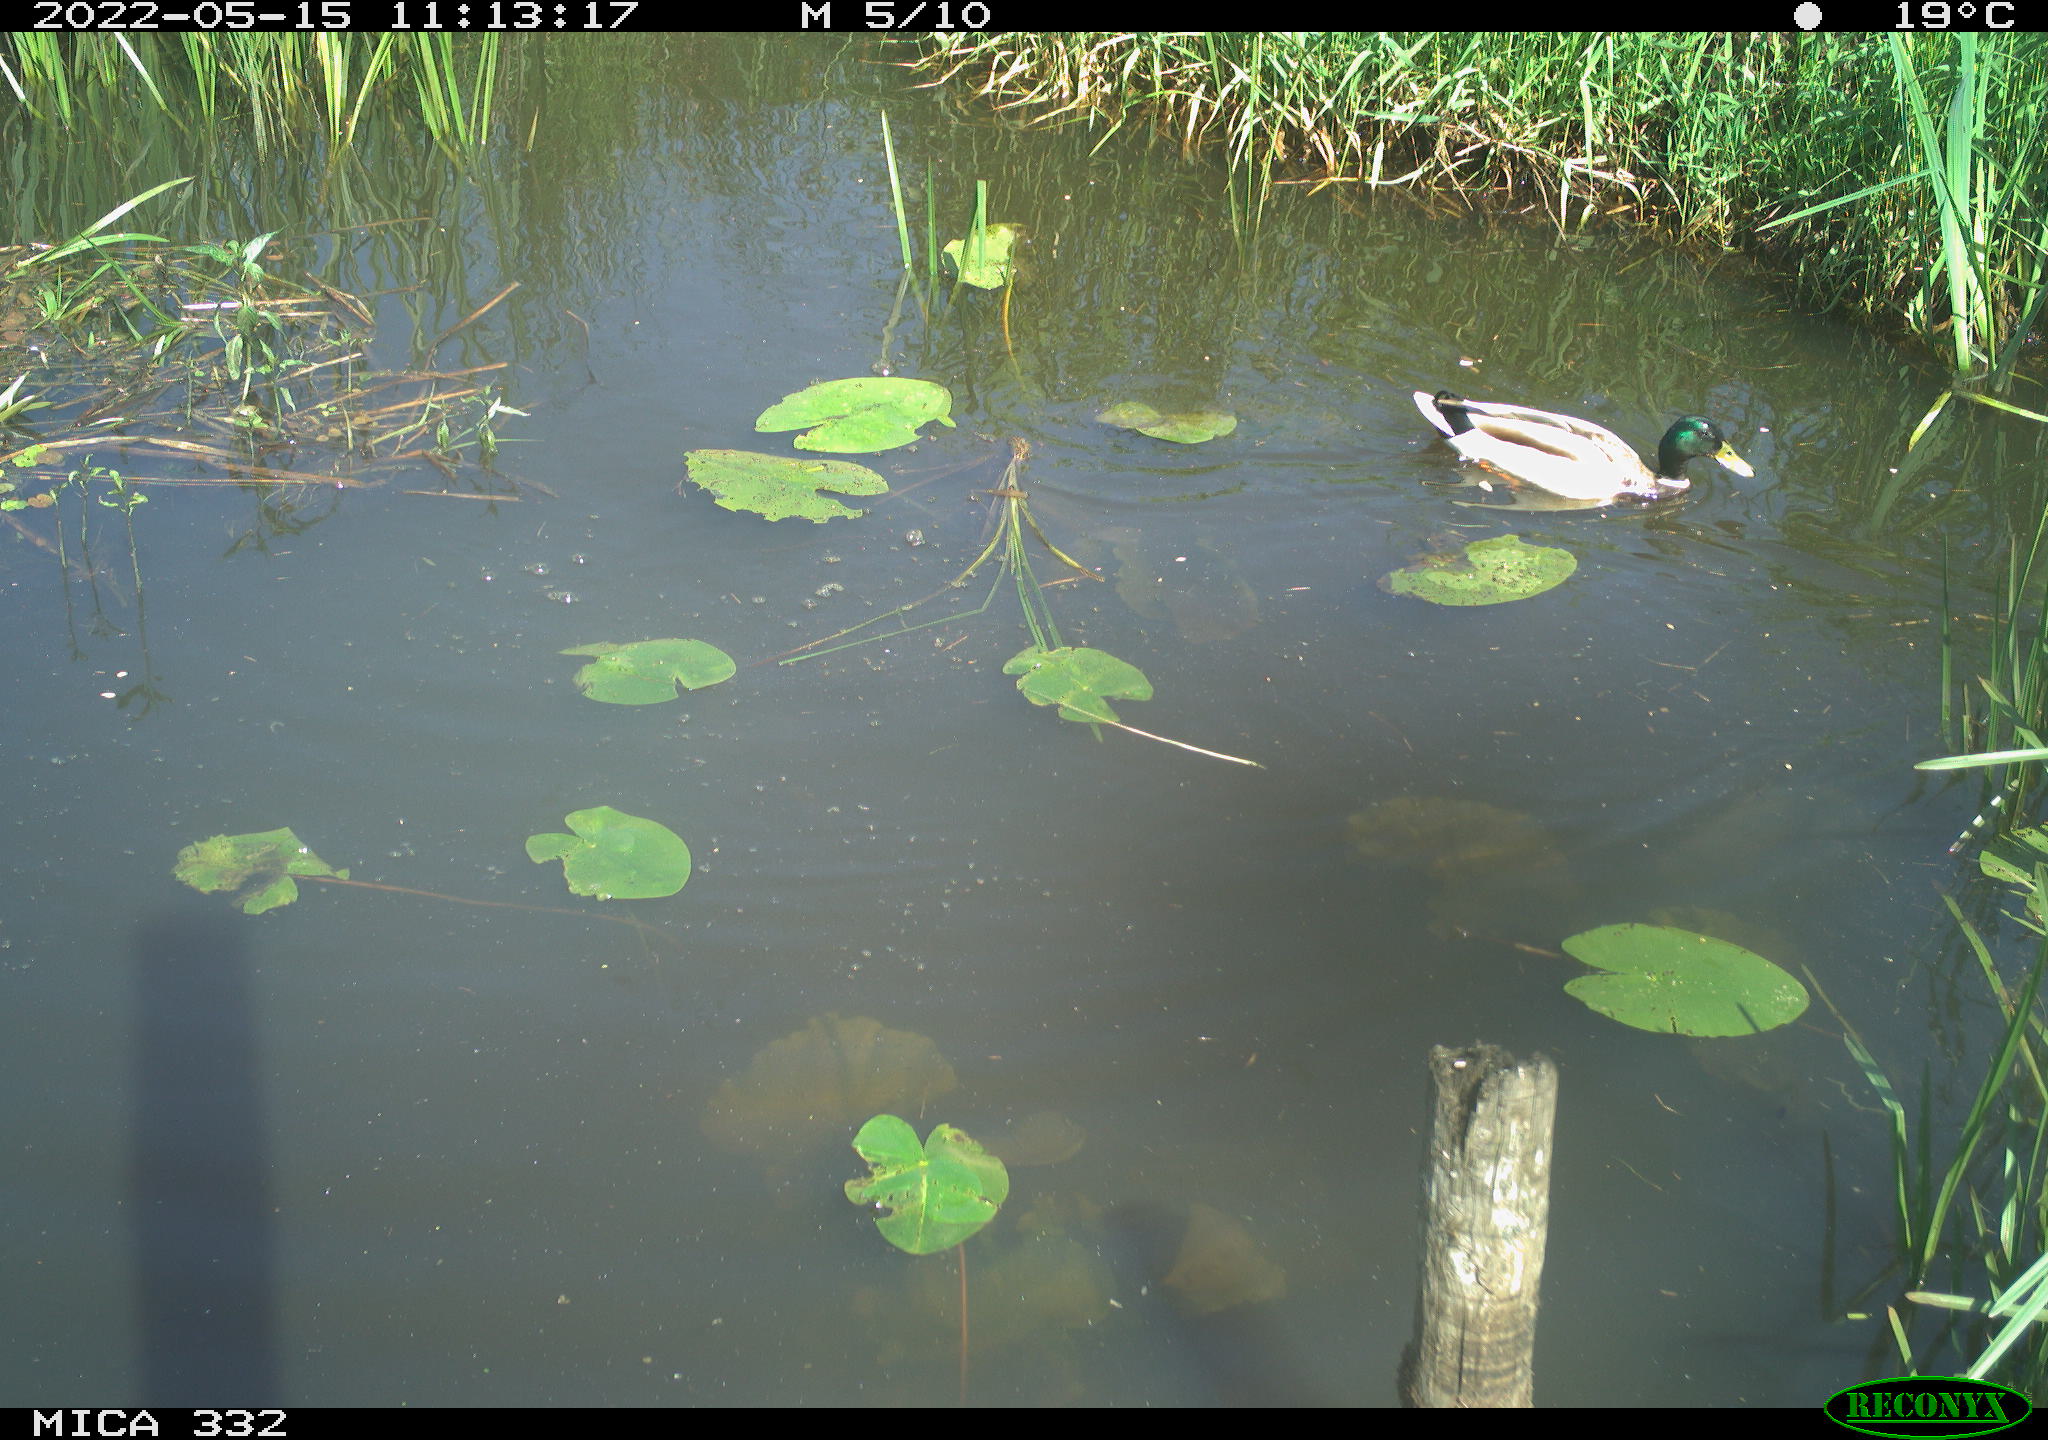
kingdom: Animalia
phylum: Chordata
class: Aves
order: Anseriformes
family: Anatidae
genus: Anas
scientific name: Anas platyrhynchos
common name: Mallard
